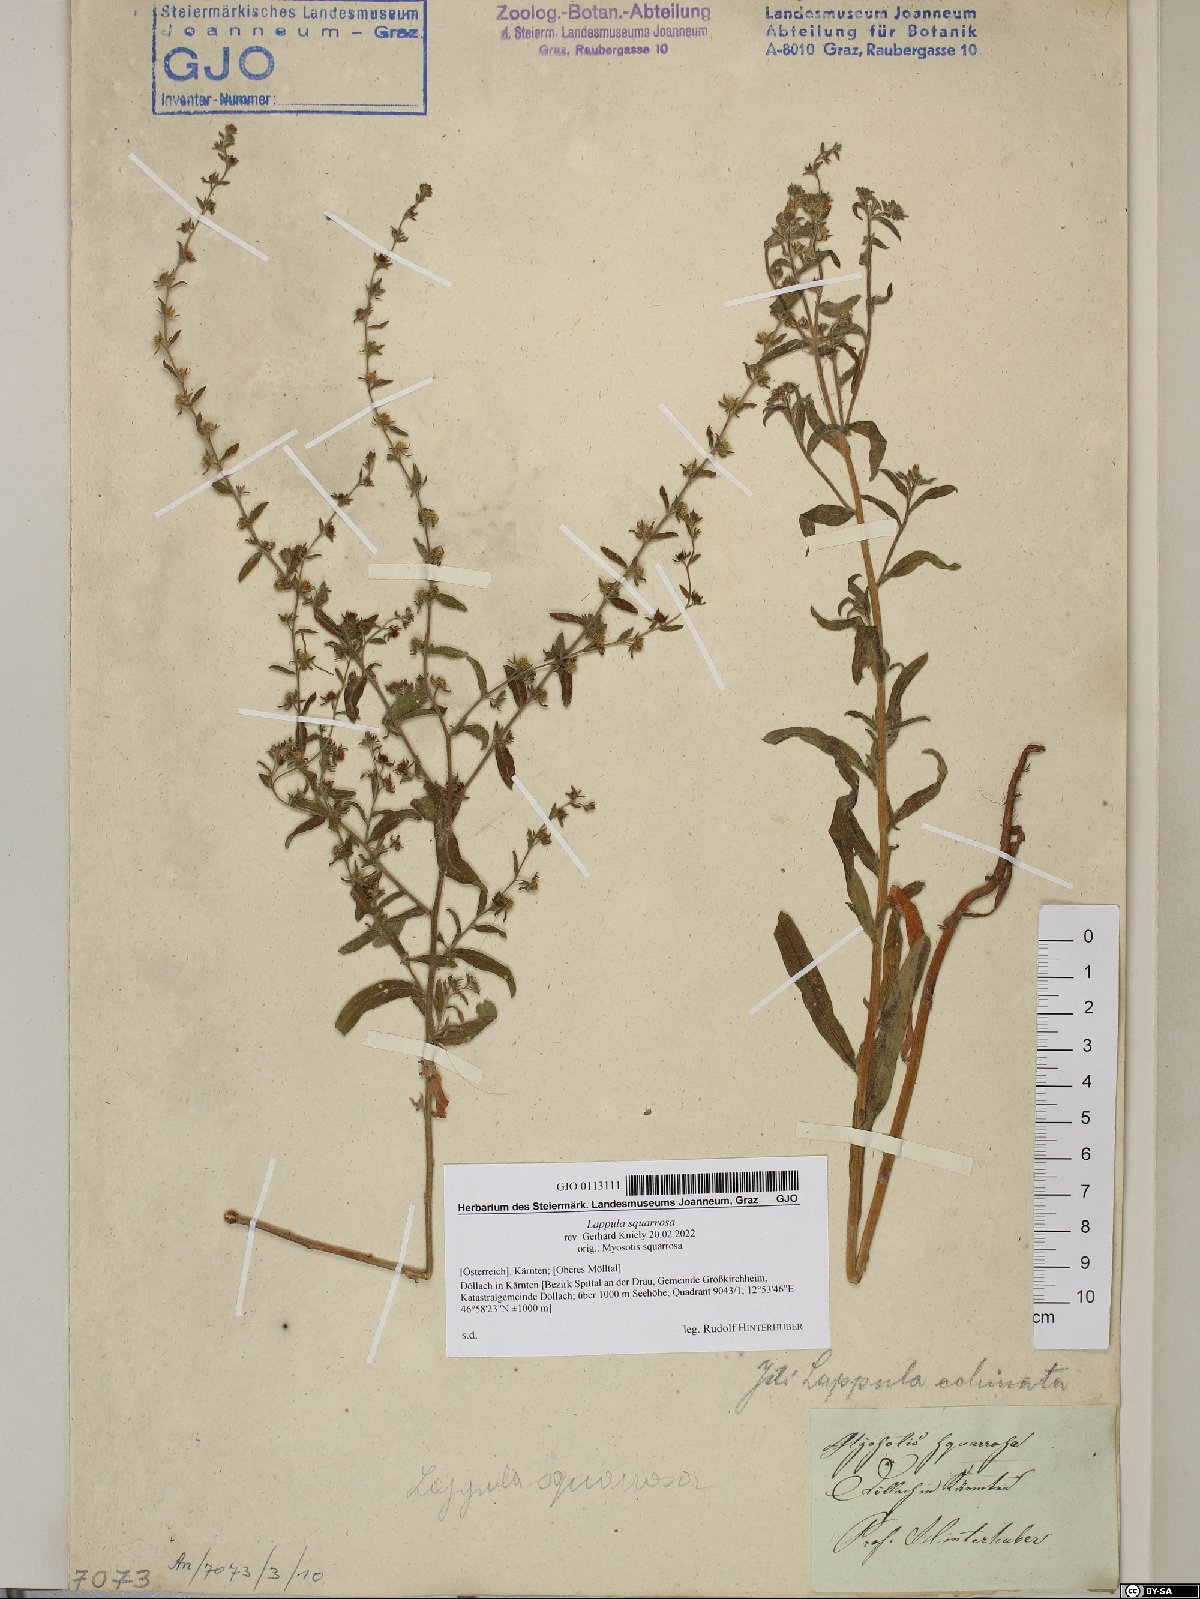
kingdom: Plantae
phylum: Tracheophyta
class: Magnoliopsida
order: Boraginales
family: Boraginaceae
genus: Lappula
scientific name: Lappula squarrosa
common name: European stickseed
